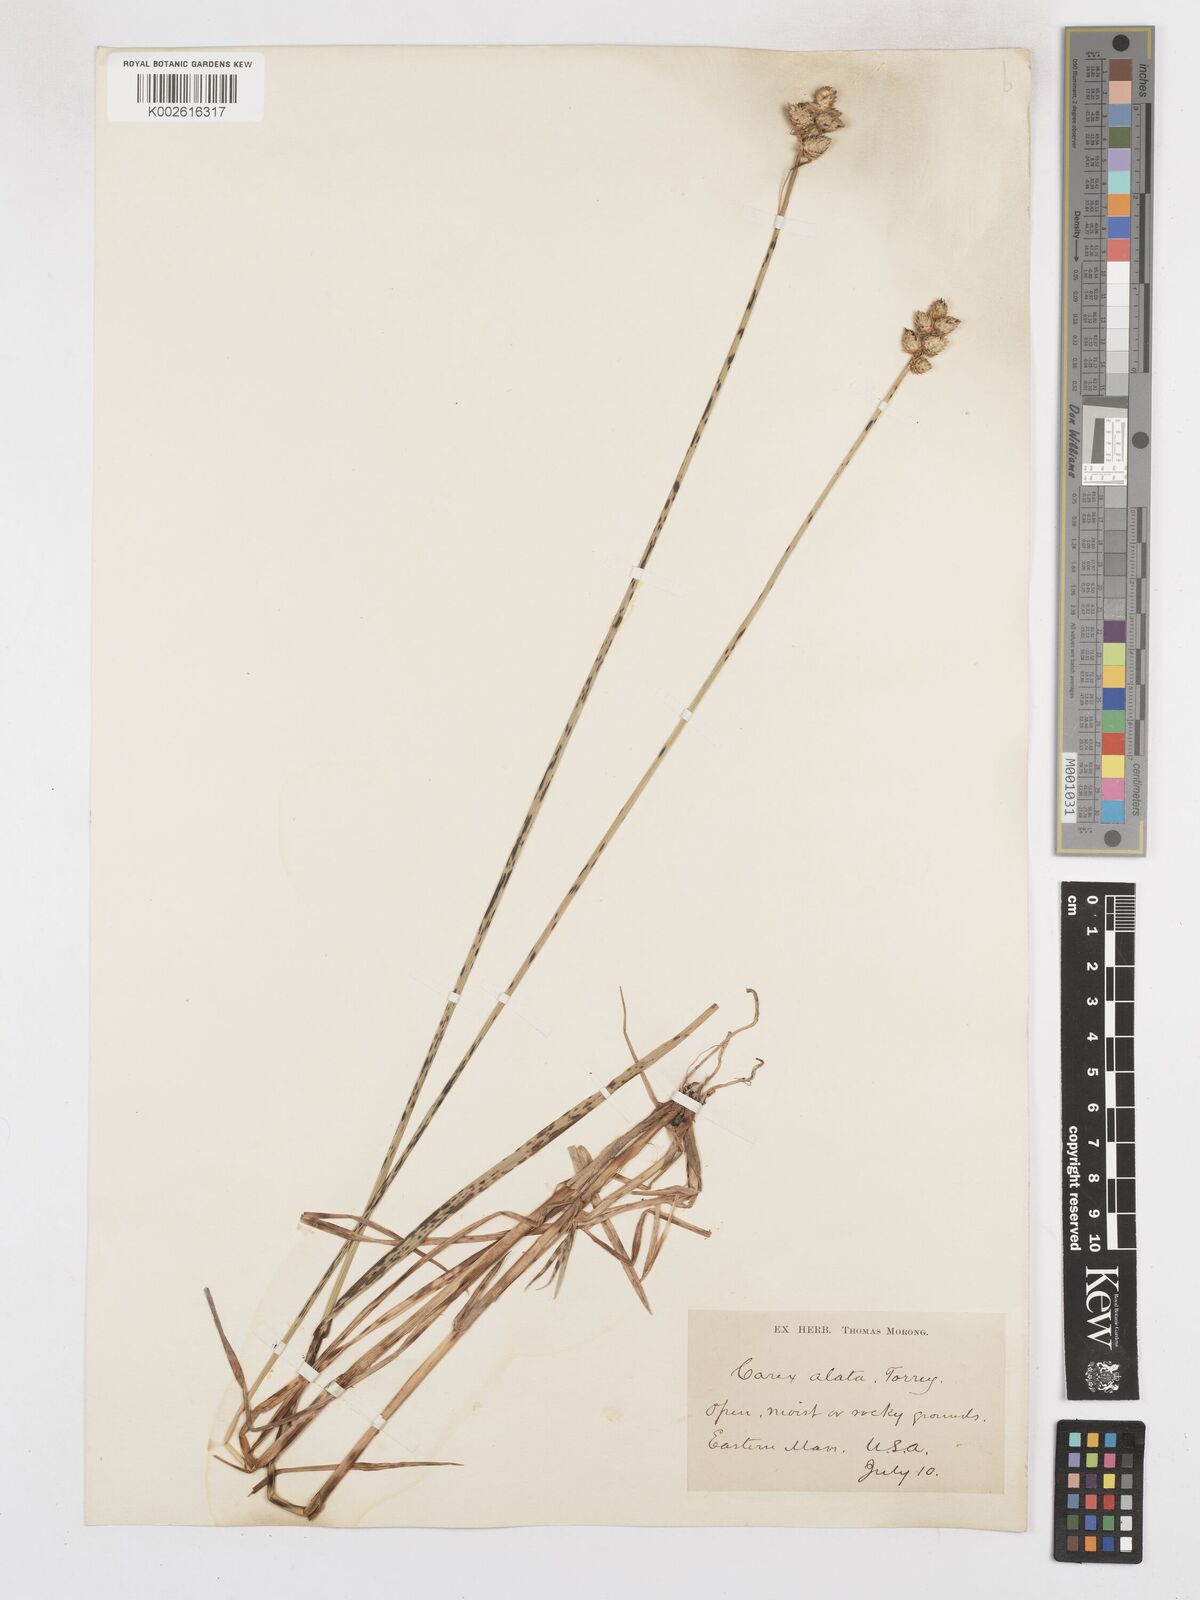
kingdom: Plantae
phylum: Tracheophyta
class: Liliopsida
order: Poales
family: Cyperaceae
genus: Carex
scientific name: Carex alata
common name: Broad-winged sedge
